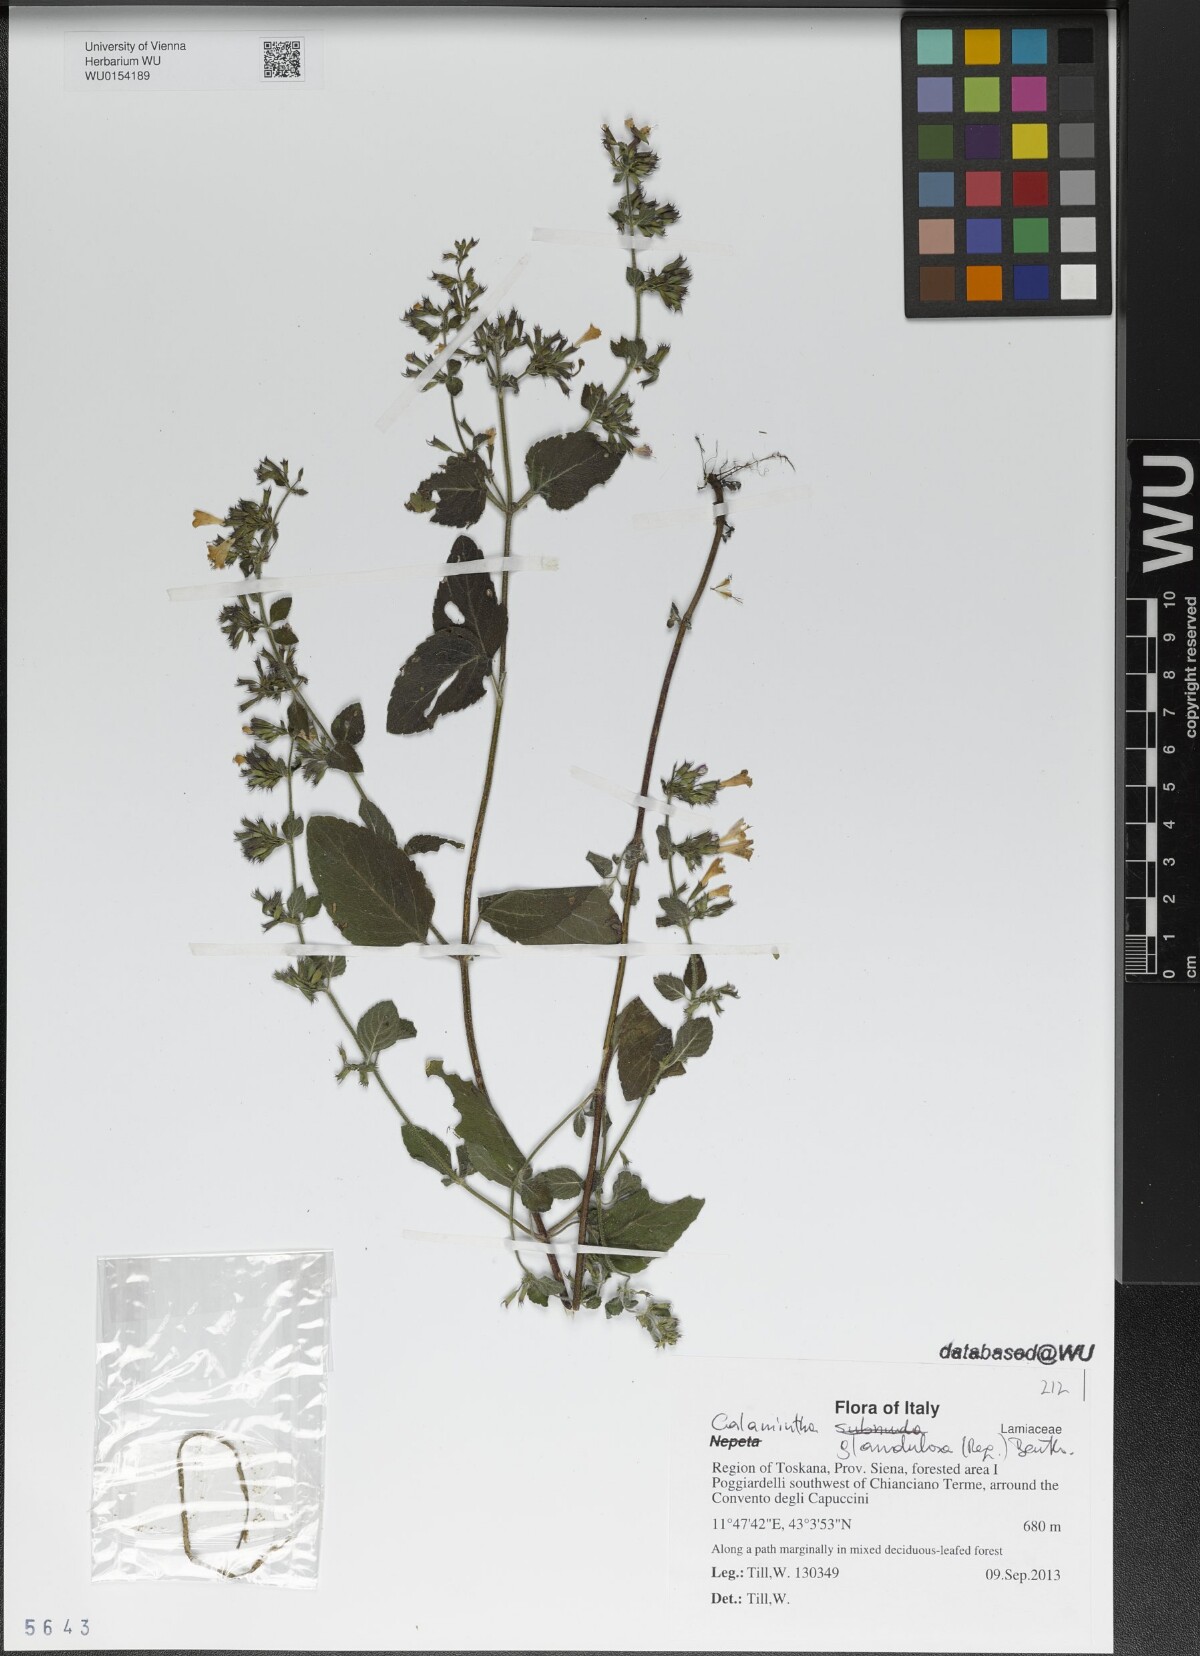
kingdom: Plantae
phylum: Tracheophyta
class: Magnoliopsida
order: Lamiales
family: Lamiaceae
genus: Clinopodium
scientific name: Clinopodium nepeta
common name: Lesser calamint
